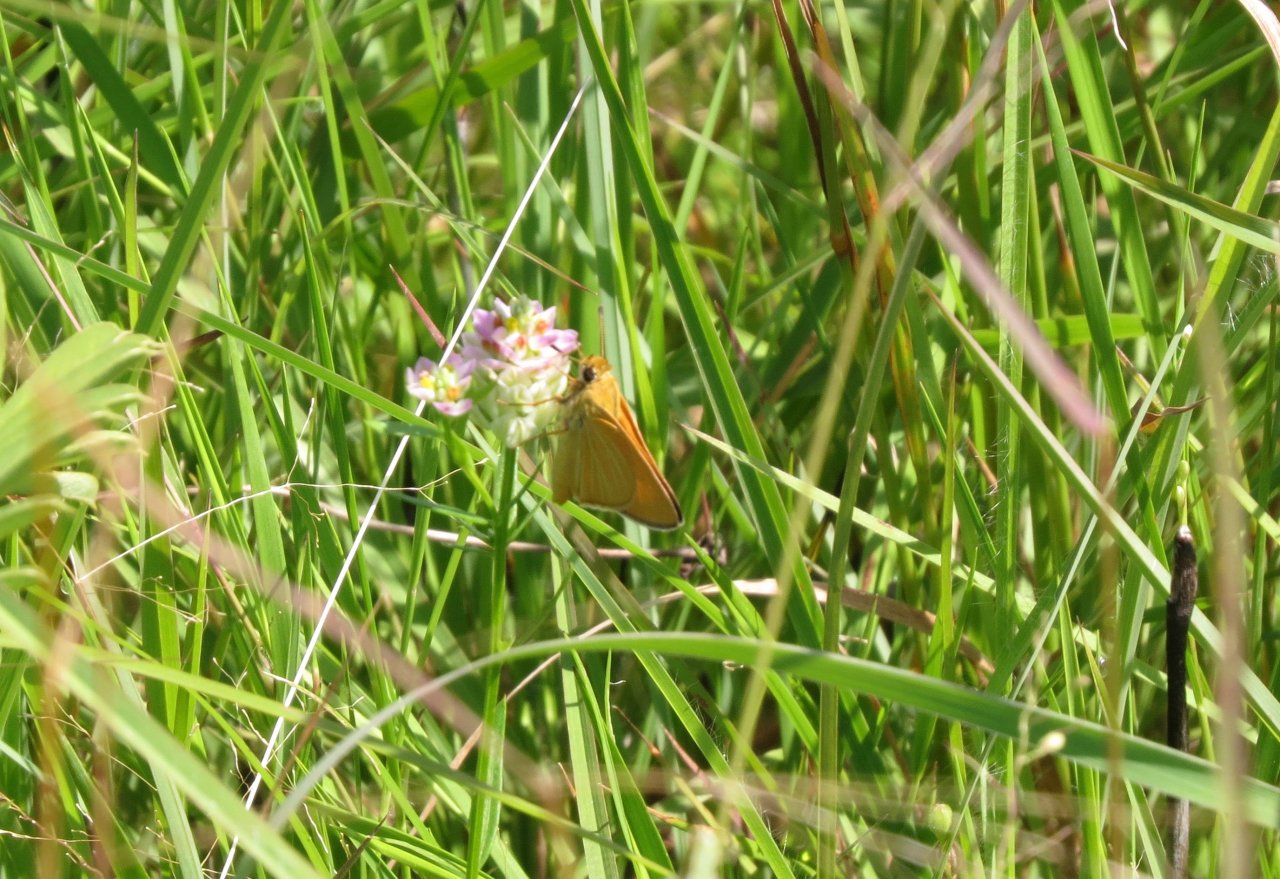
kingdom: Animalia
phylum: Arthropoda
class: Insecta
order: Lepidoptera
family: Hesperiidae
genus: Atrytone
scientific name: Atrytone arogos
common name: Arogos Skipper
